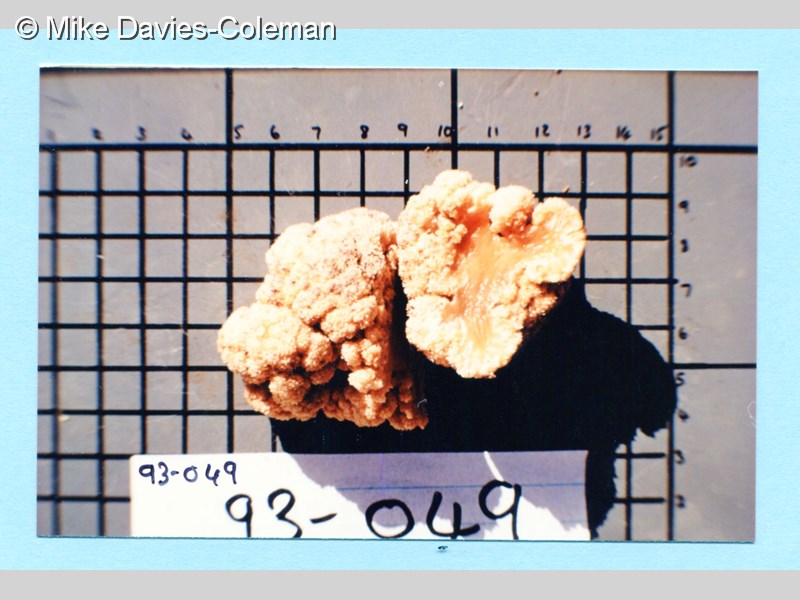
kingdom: Animalia
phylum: Cnidaria
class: Anthozoa
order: Malacalcyonacea
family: Capnellidae
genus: Eunephthya
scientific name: Eunephthya thyrsoidea
